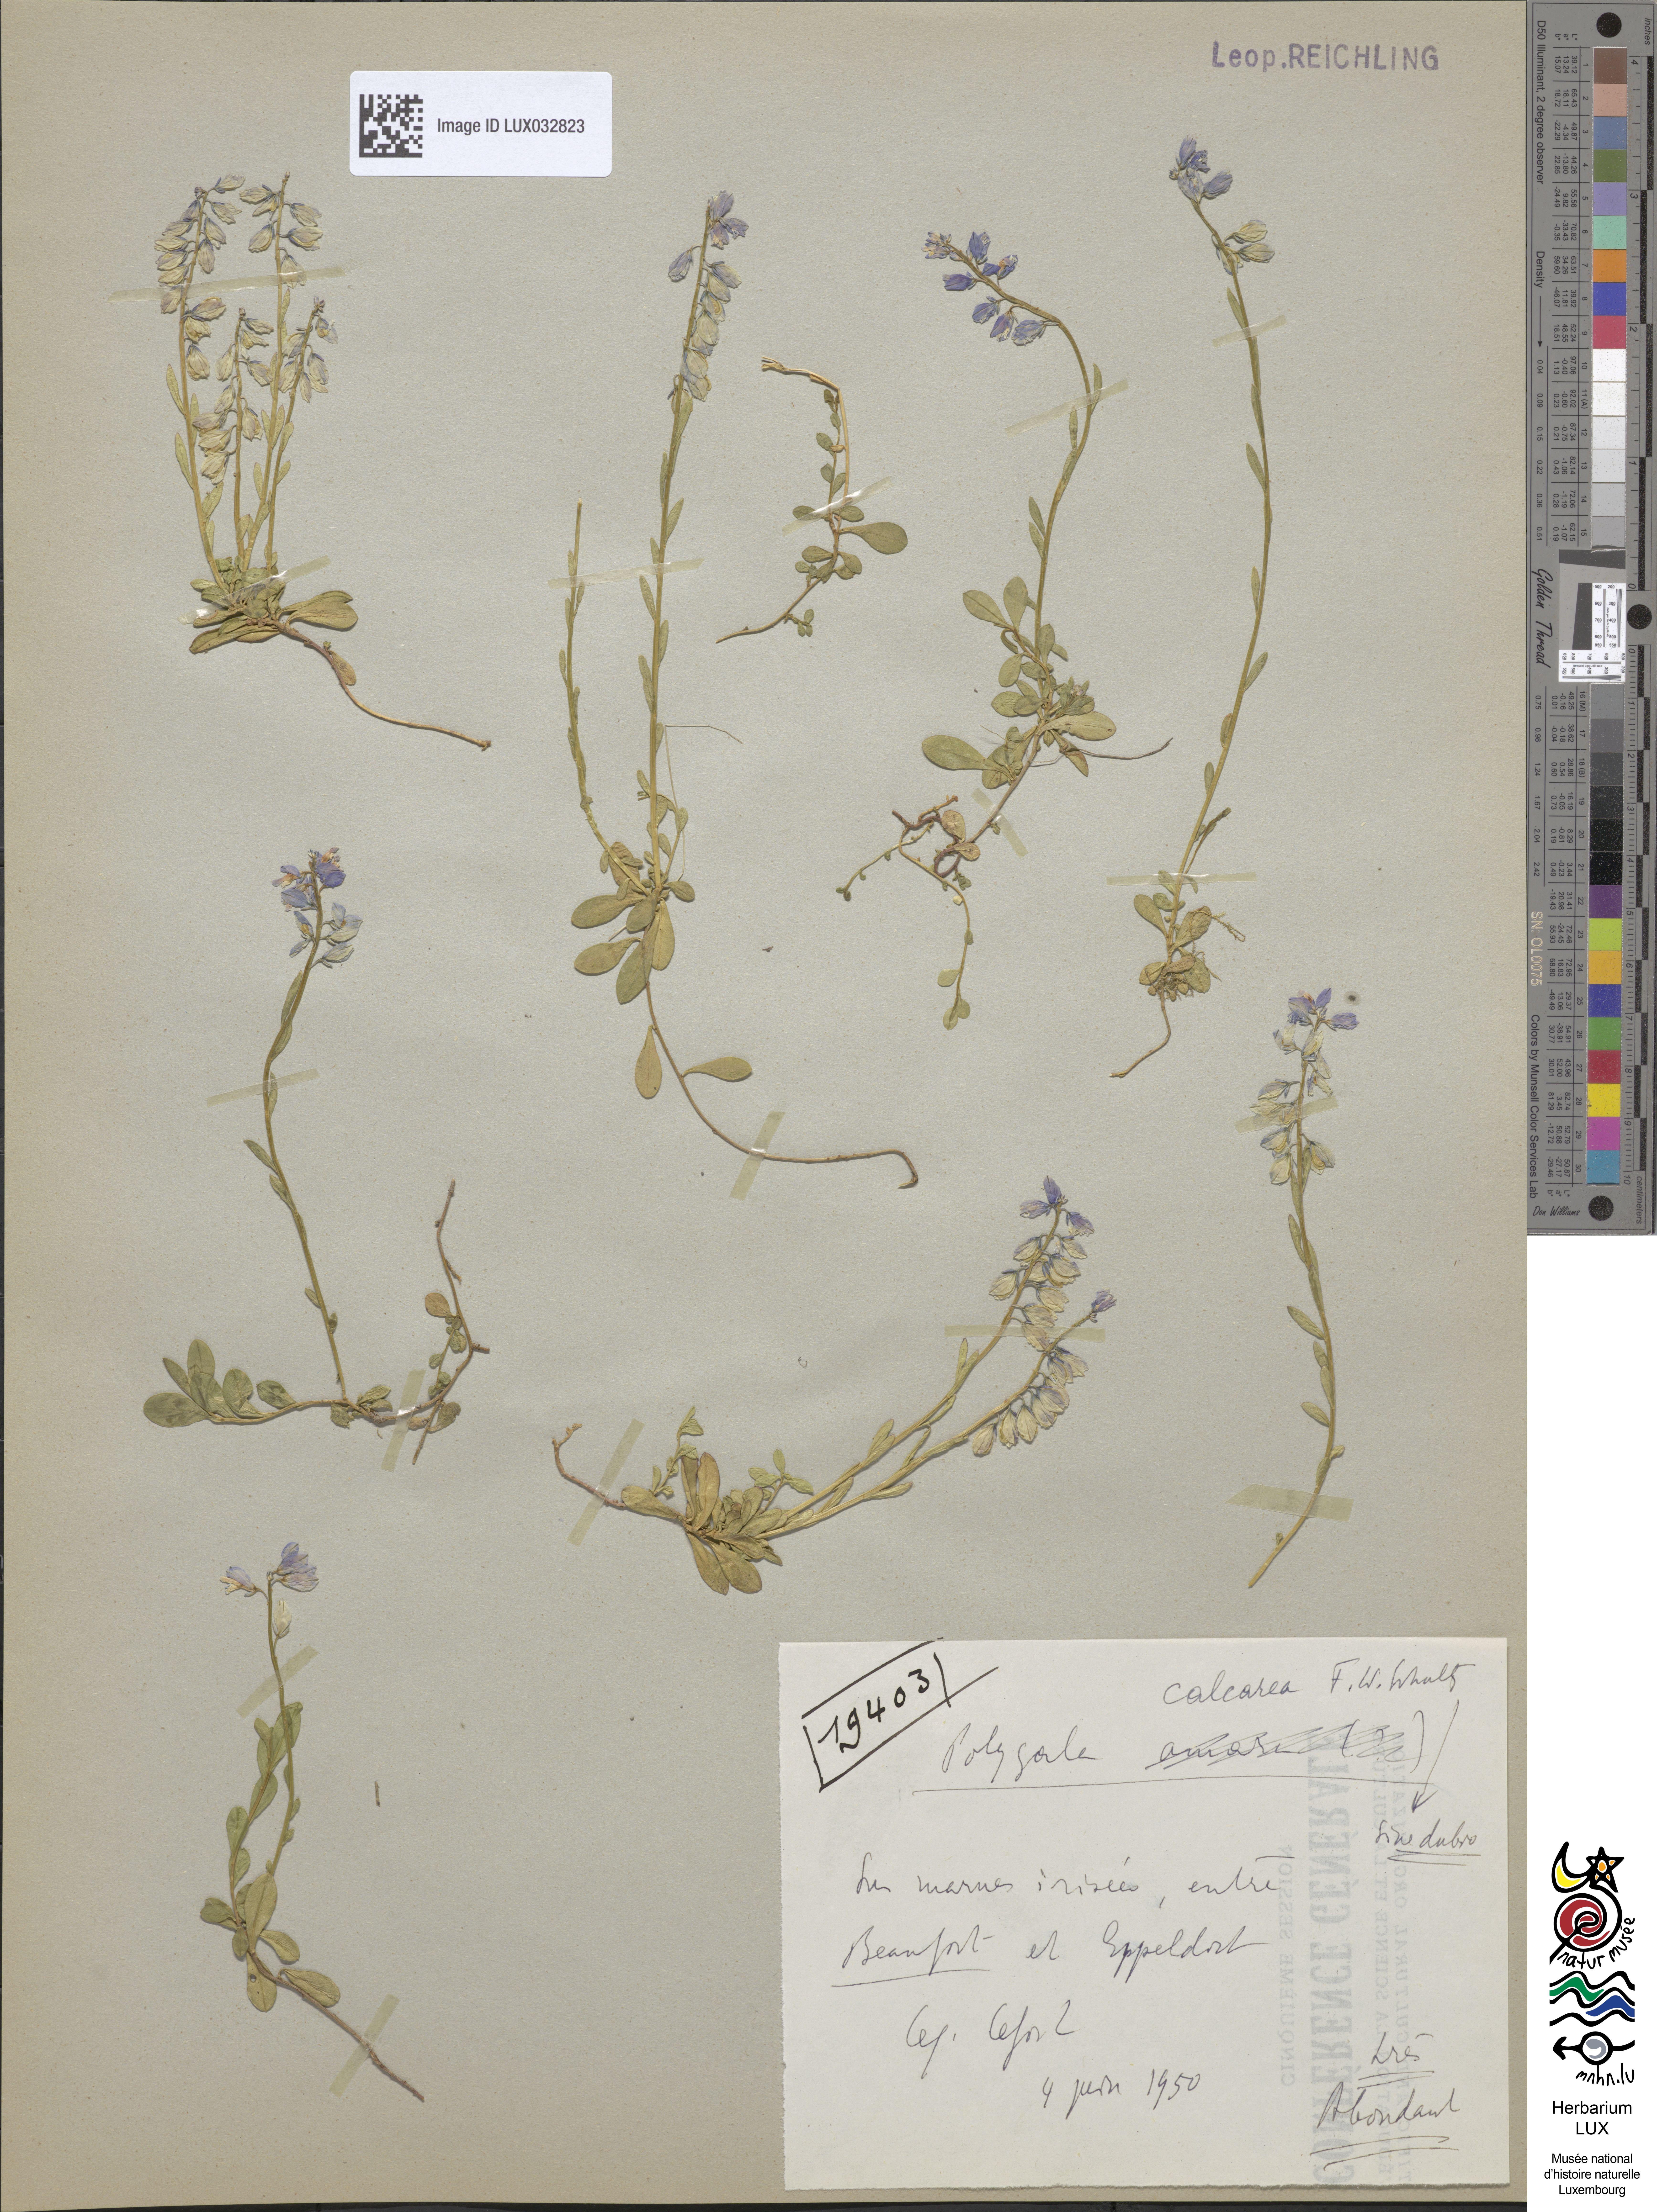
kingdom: Plantae
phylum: Tracheophyta
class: Magnoliopsida
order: Fabales
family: Polygalaceae
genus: Polygala
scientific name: Polygala calcarea
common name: Chalk milkwort
